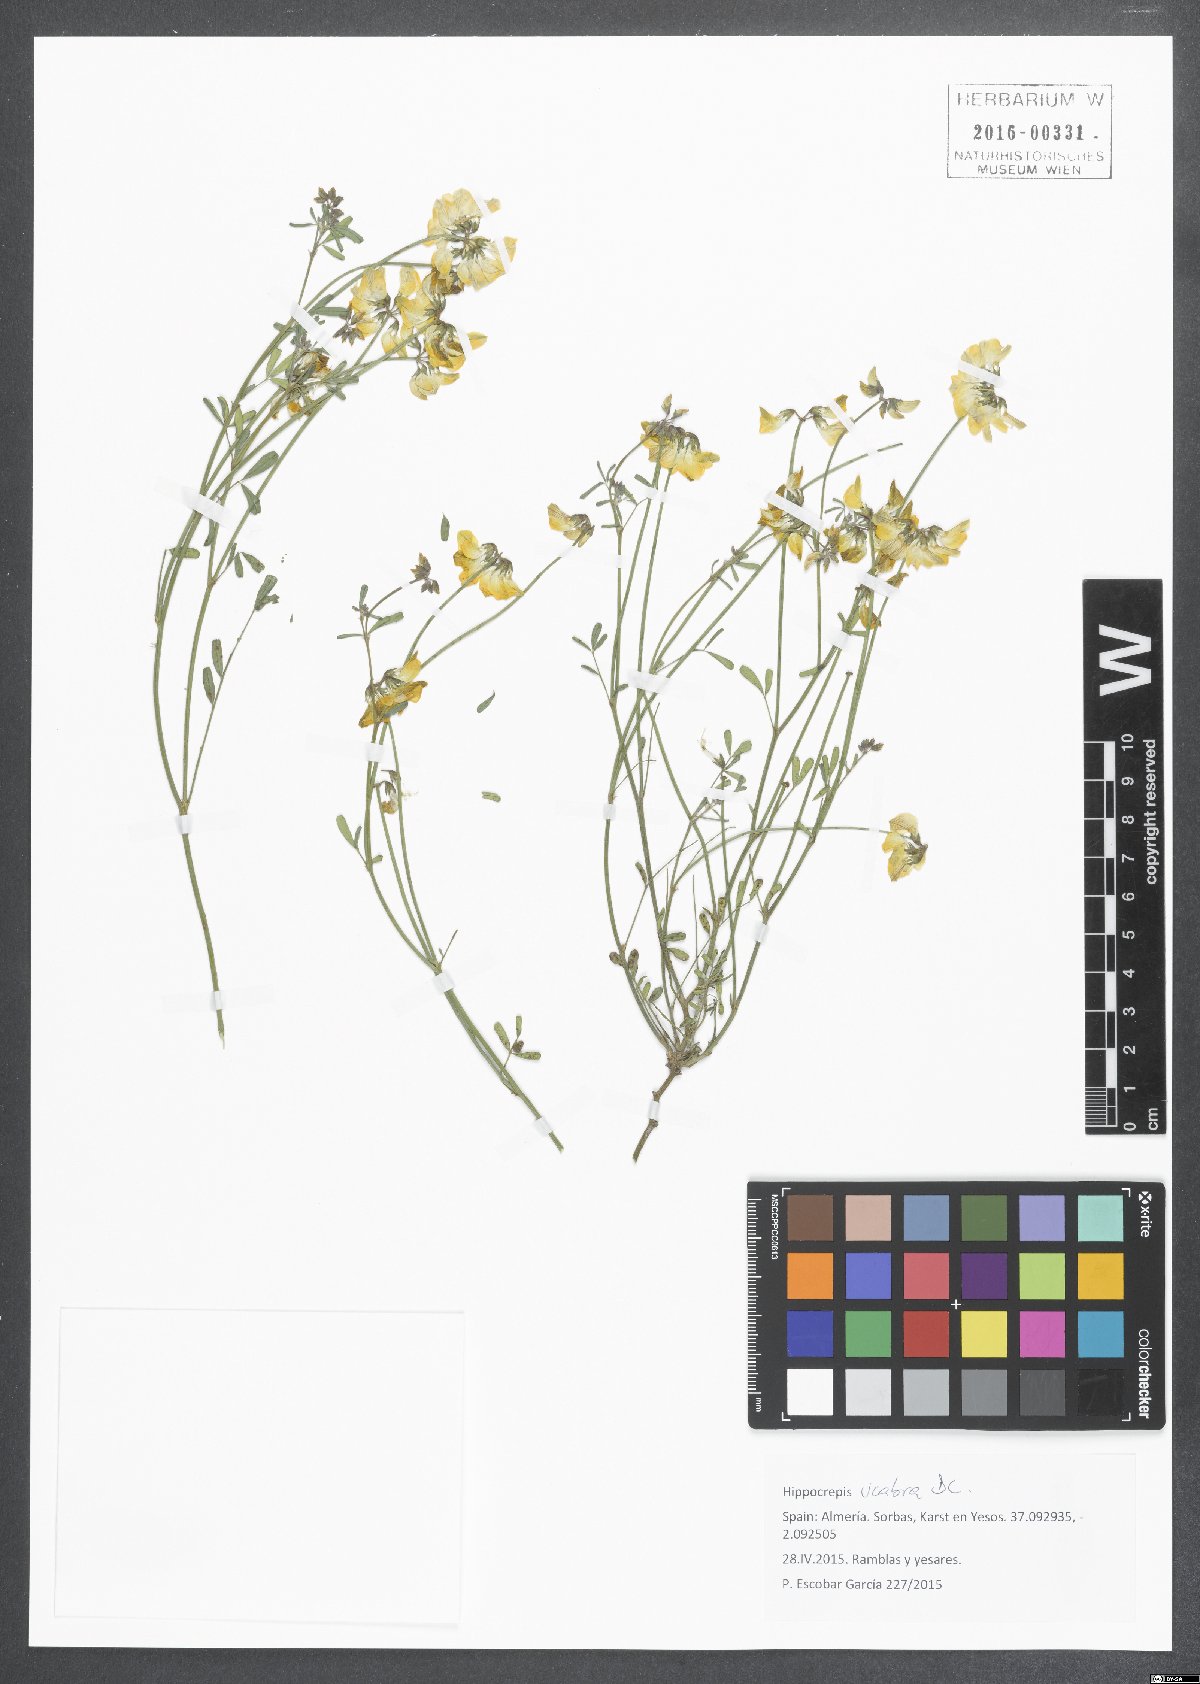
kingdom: Plantae
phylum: Tracheophyta
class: Magnoliopsida
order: Fabales
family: Fabaceae
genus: Hippocrepis
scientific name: Hippocrepis scabra
